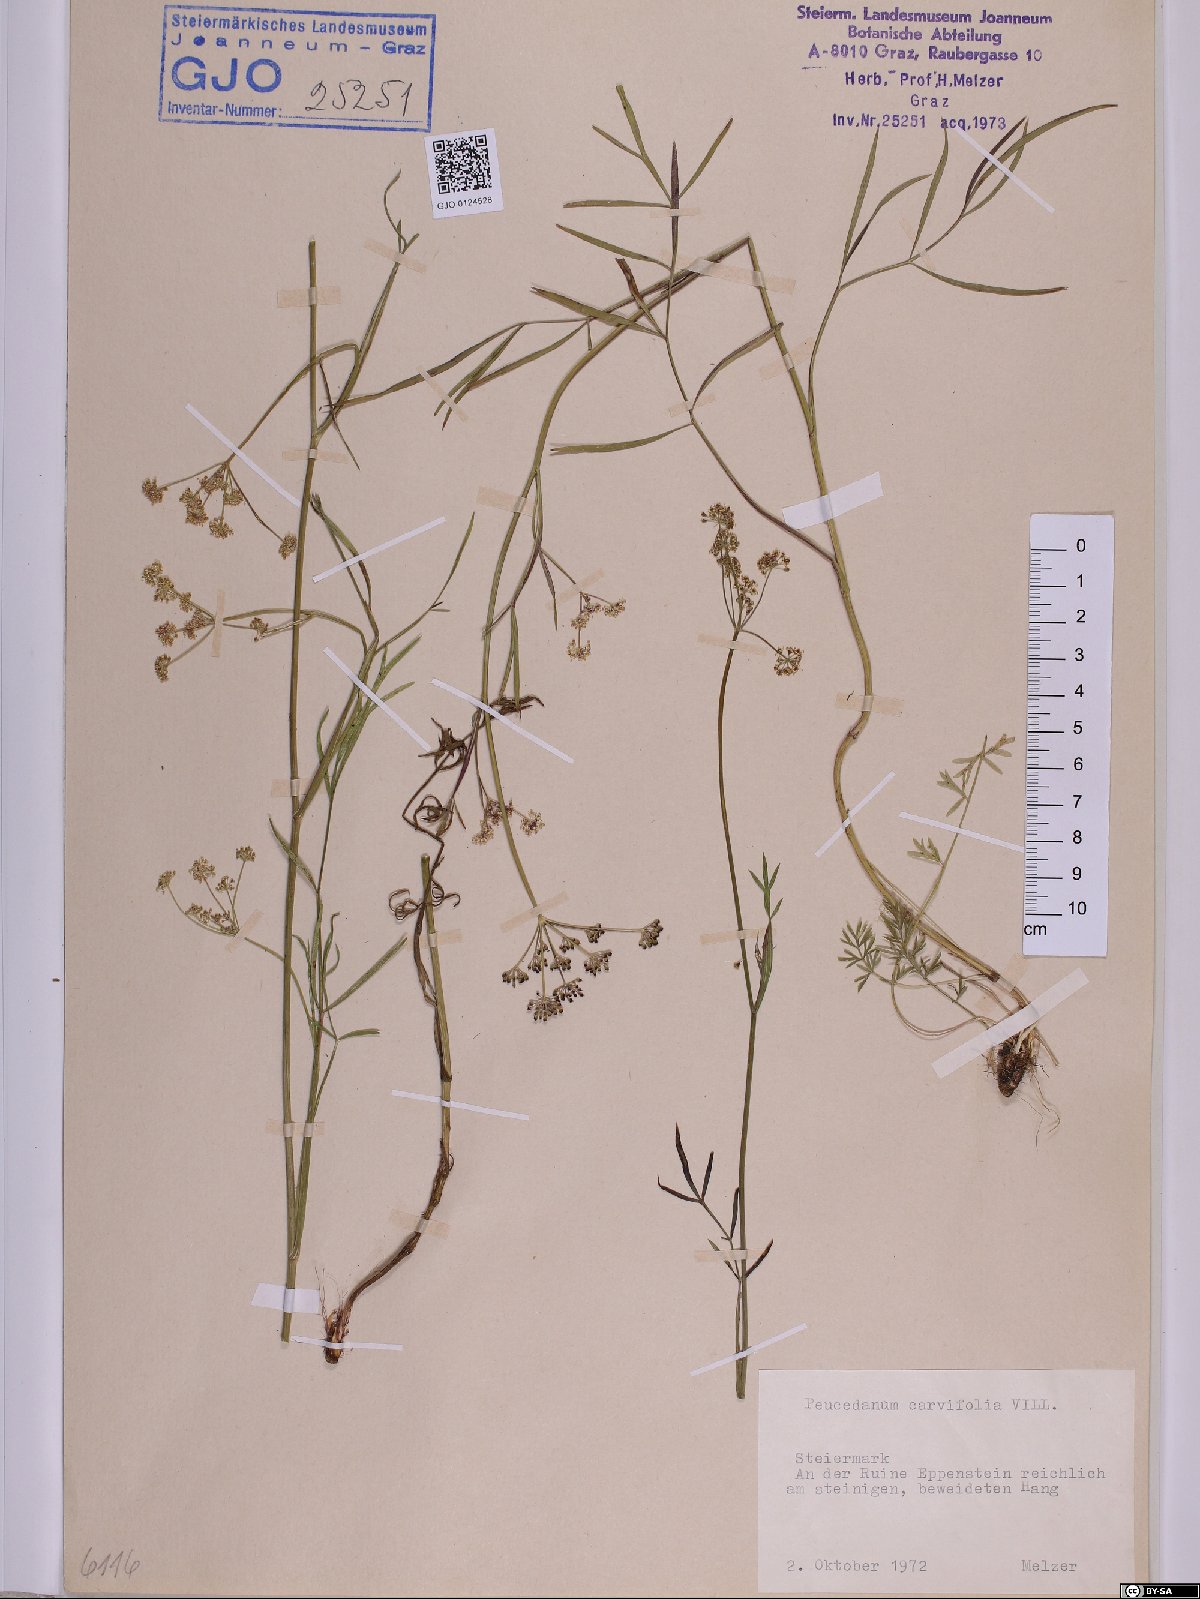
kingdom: Plantae
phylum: Tracheophyta
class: Magnoliopsida
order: Apiales
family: Apiaceae
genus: Dichoropetalum
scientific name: Dichoropetalum carvifolia
